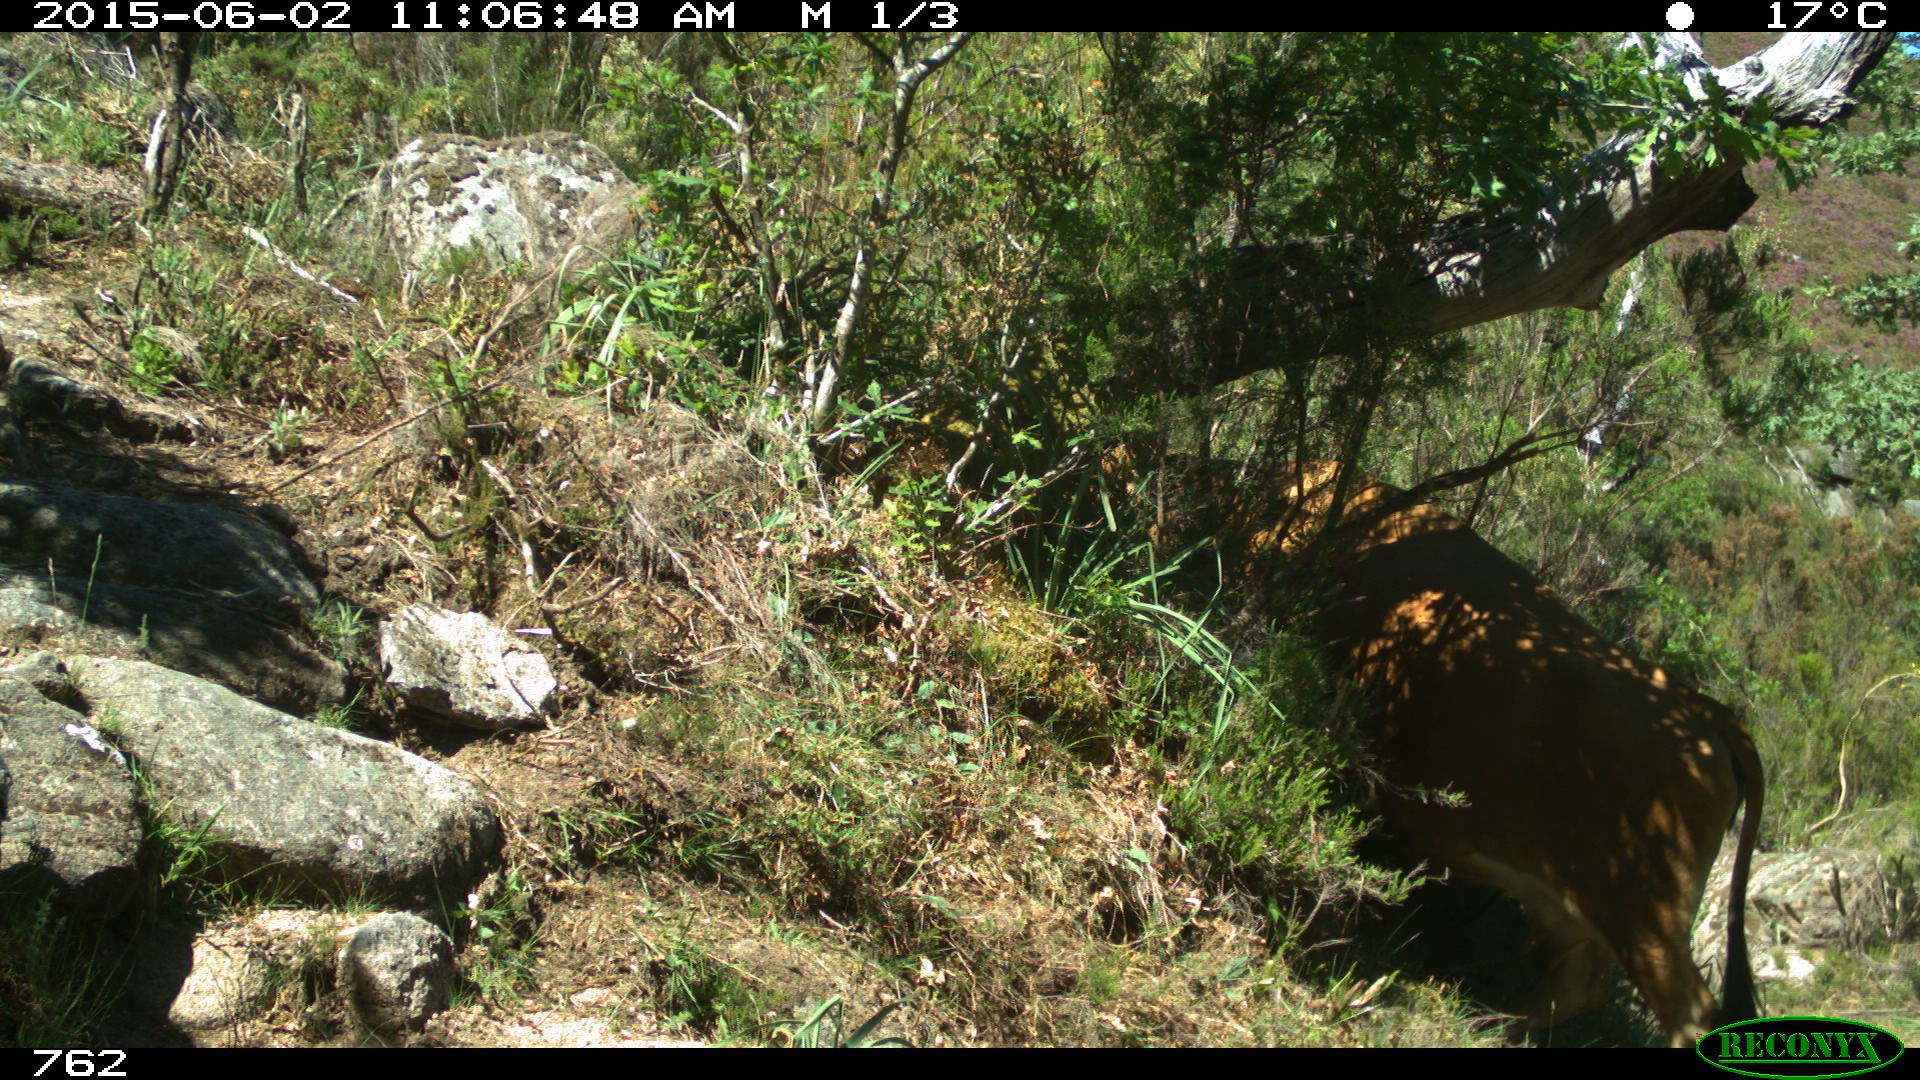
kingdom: Animalia
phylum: Chordata
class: Mammalia
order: Artiodactyla
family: Bovidae
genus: Bos
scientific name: Bos taurus
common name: Domesticated cattle
